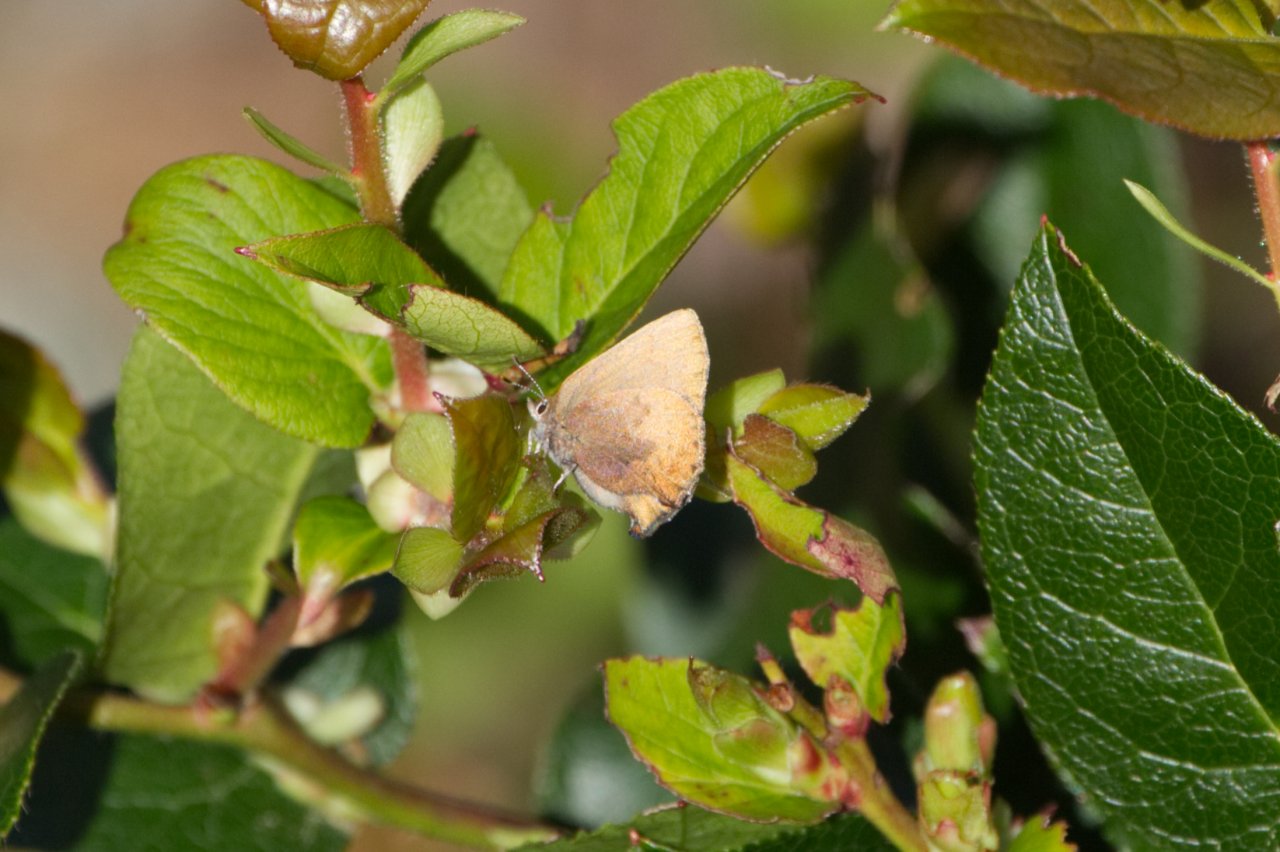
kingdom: Animalia
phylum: Arthropoda
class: Insecta
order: Lepidoptera
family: Lycaenidae
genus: Incisalia
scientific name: Incisalia irioides
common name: Brown Elfin
